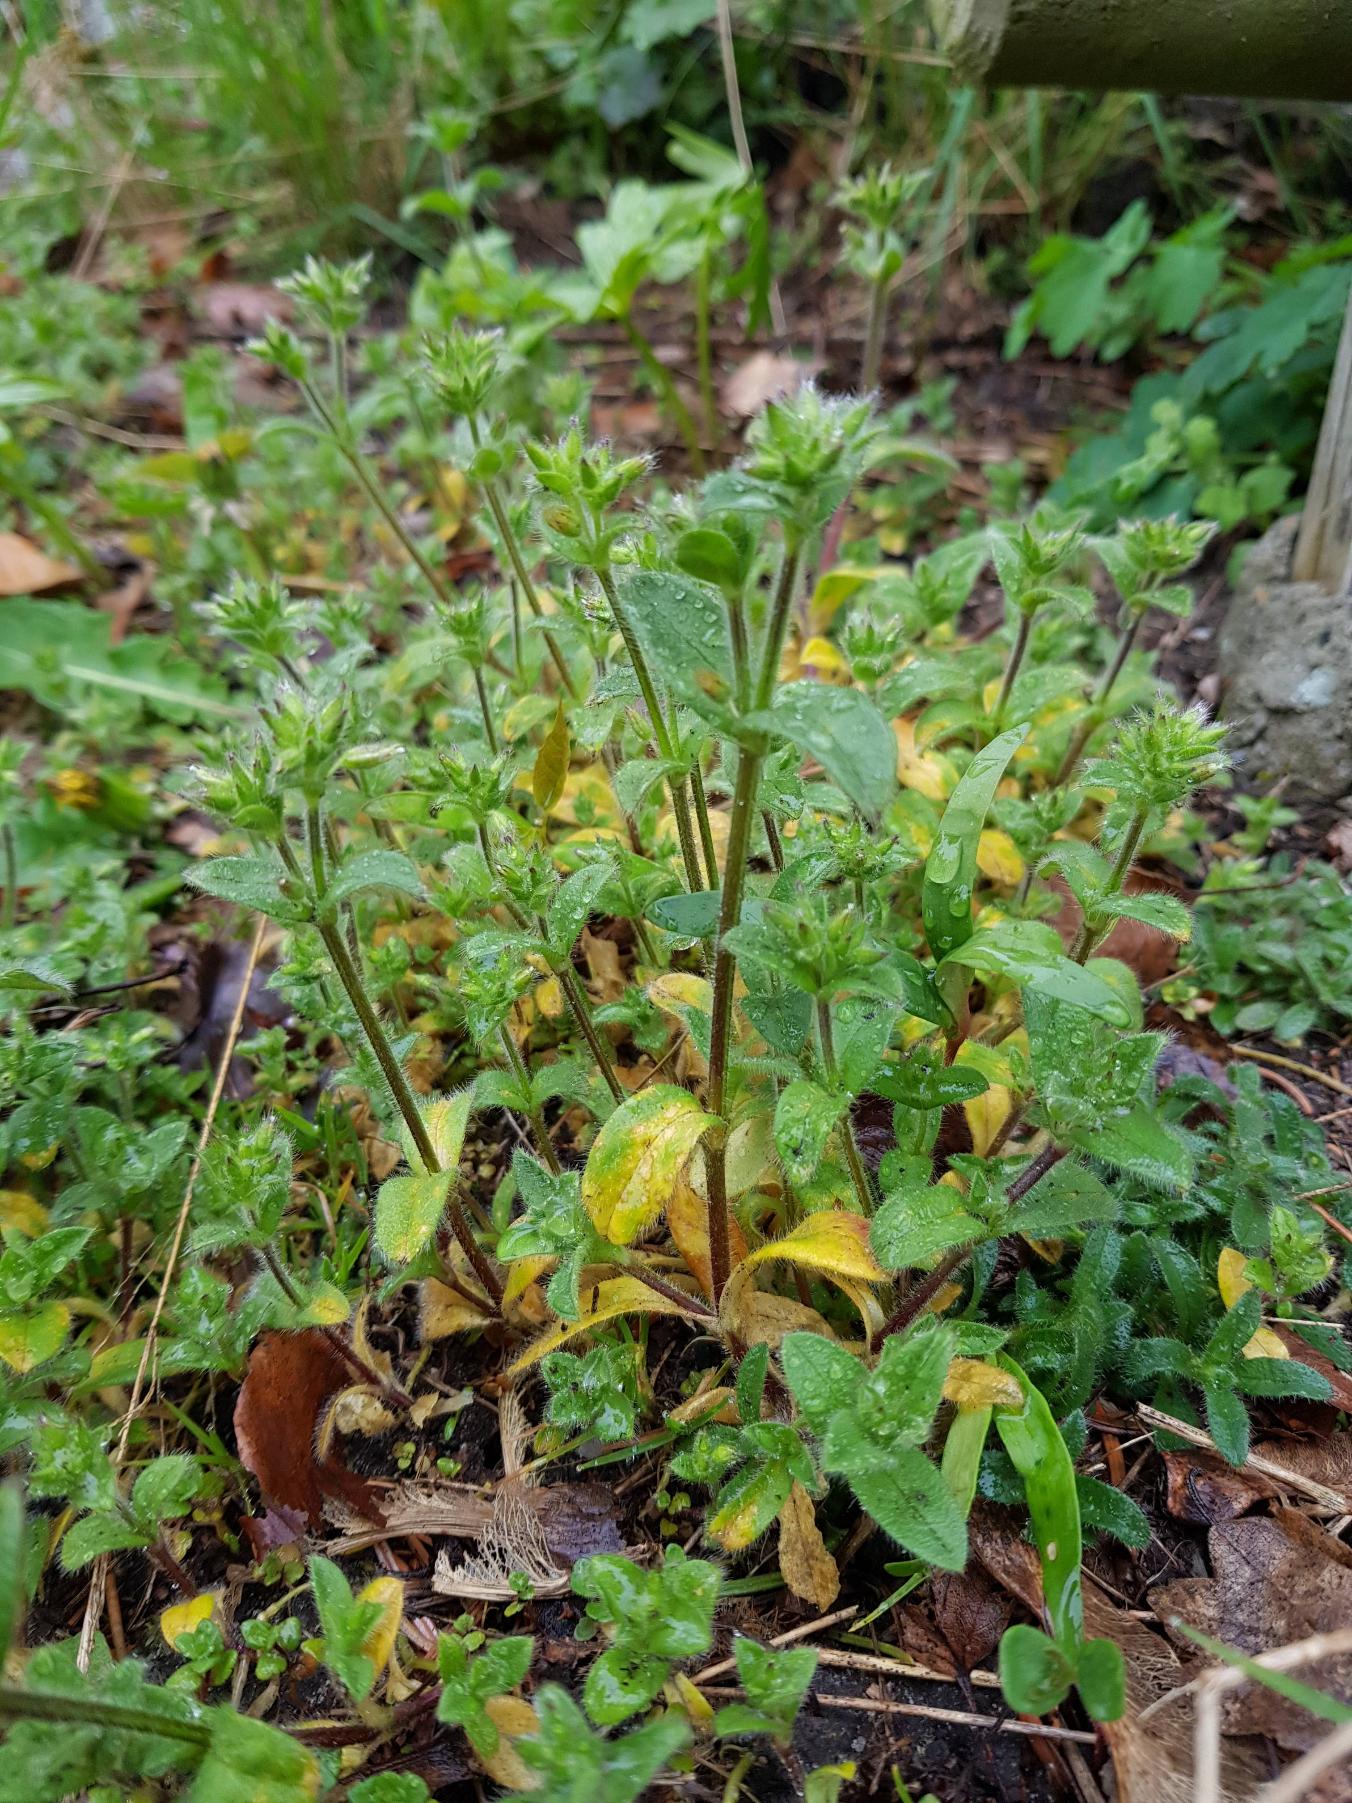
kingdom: Plantae
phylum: Tracheophyta
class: Magnoliopsida
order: Caryophyllales
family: Caryophyllaceae
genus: Cerastium
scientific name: Cerastium glomeratum
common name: Opret hønsetarm
